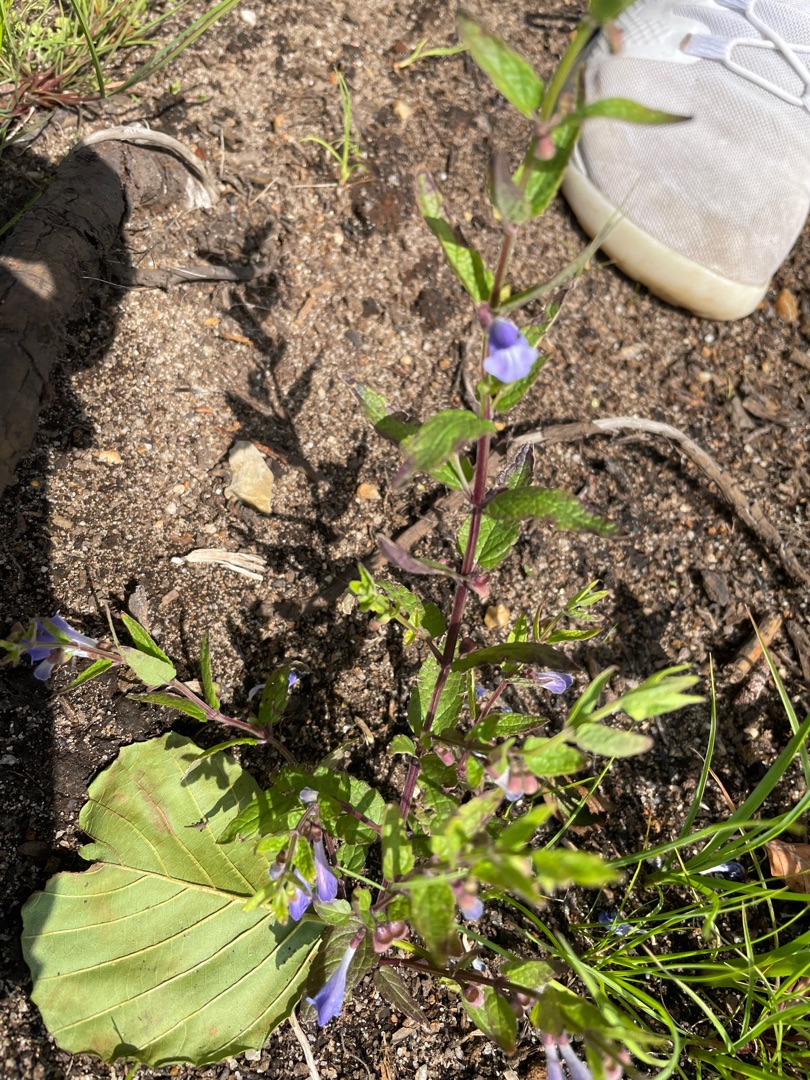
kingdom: Plantae
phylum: Tracheophyta
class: Magnoliopsida
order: Lamiales
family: Lamiaceae
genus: Scutellaria
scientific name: Scutellaria galericulata
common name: Almindelig skjolddrager
